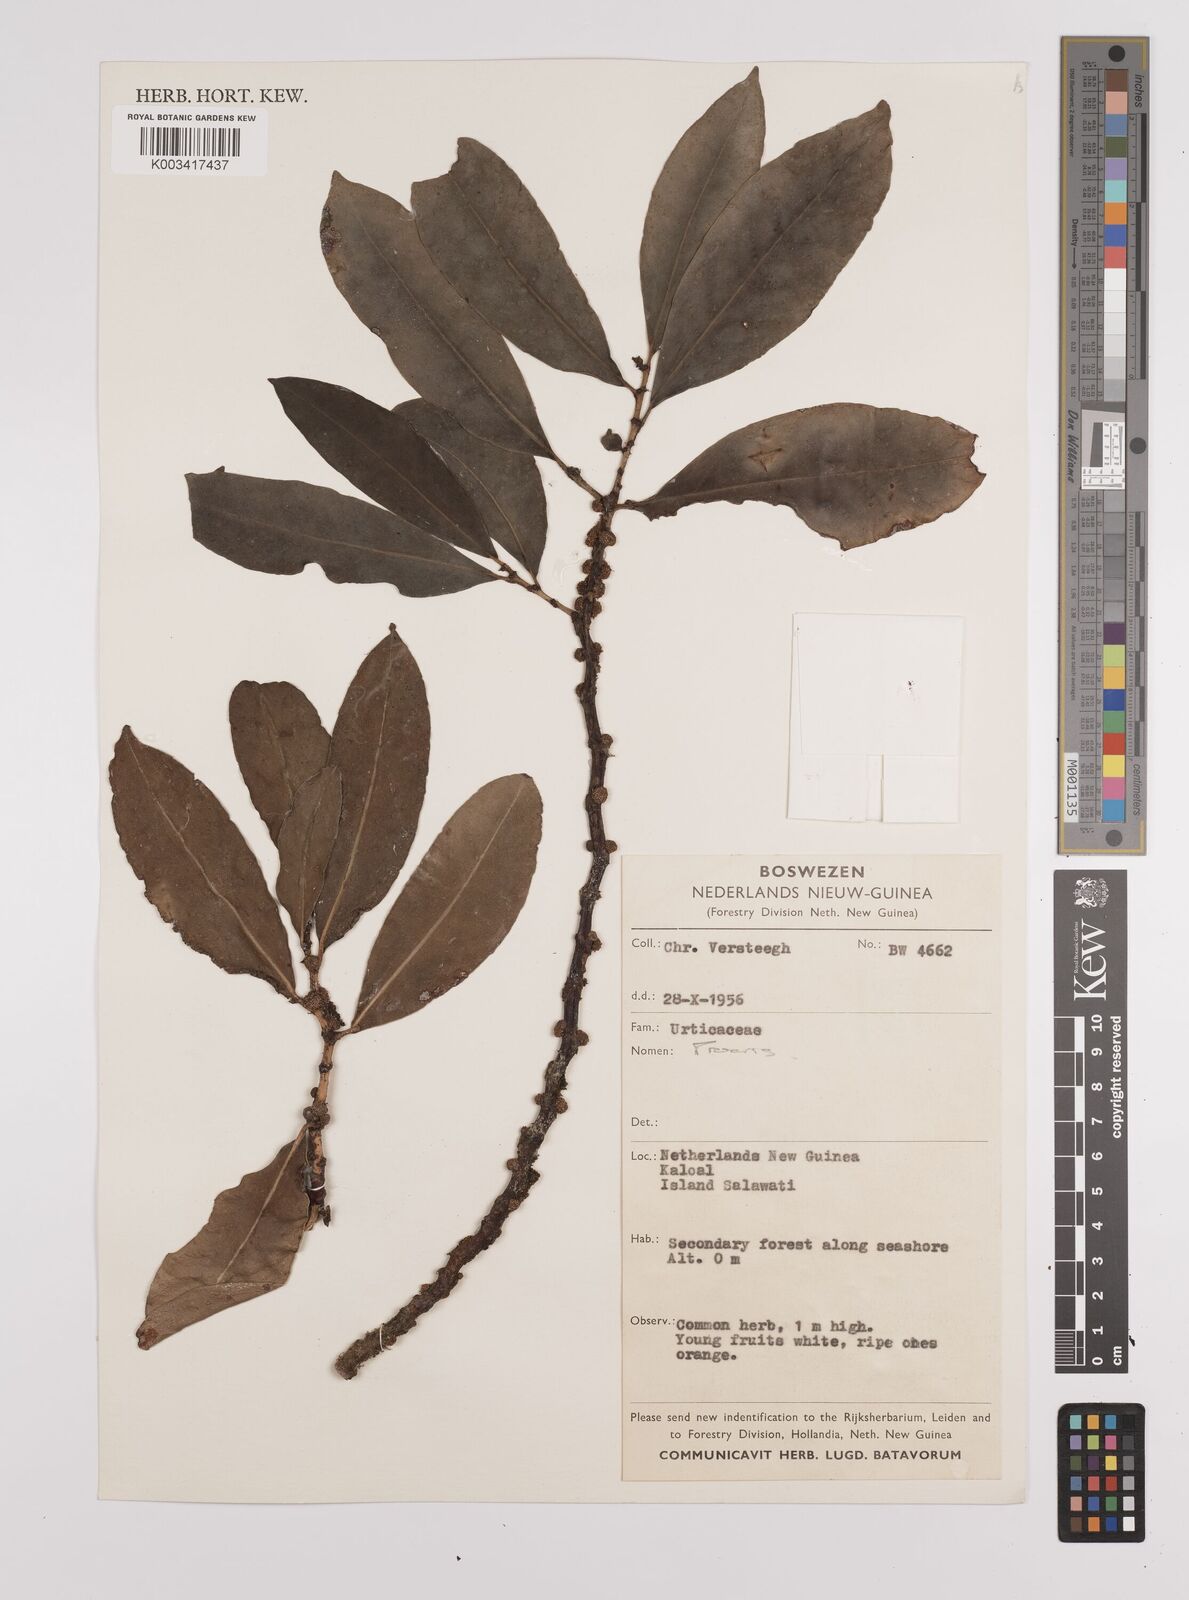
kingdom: Plantae
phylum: Tracheophyta
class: Magnoliopsida
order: Rosales
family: Urticaceae
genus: Procris
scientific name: Procris
